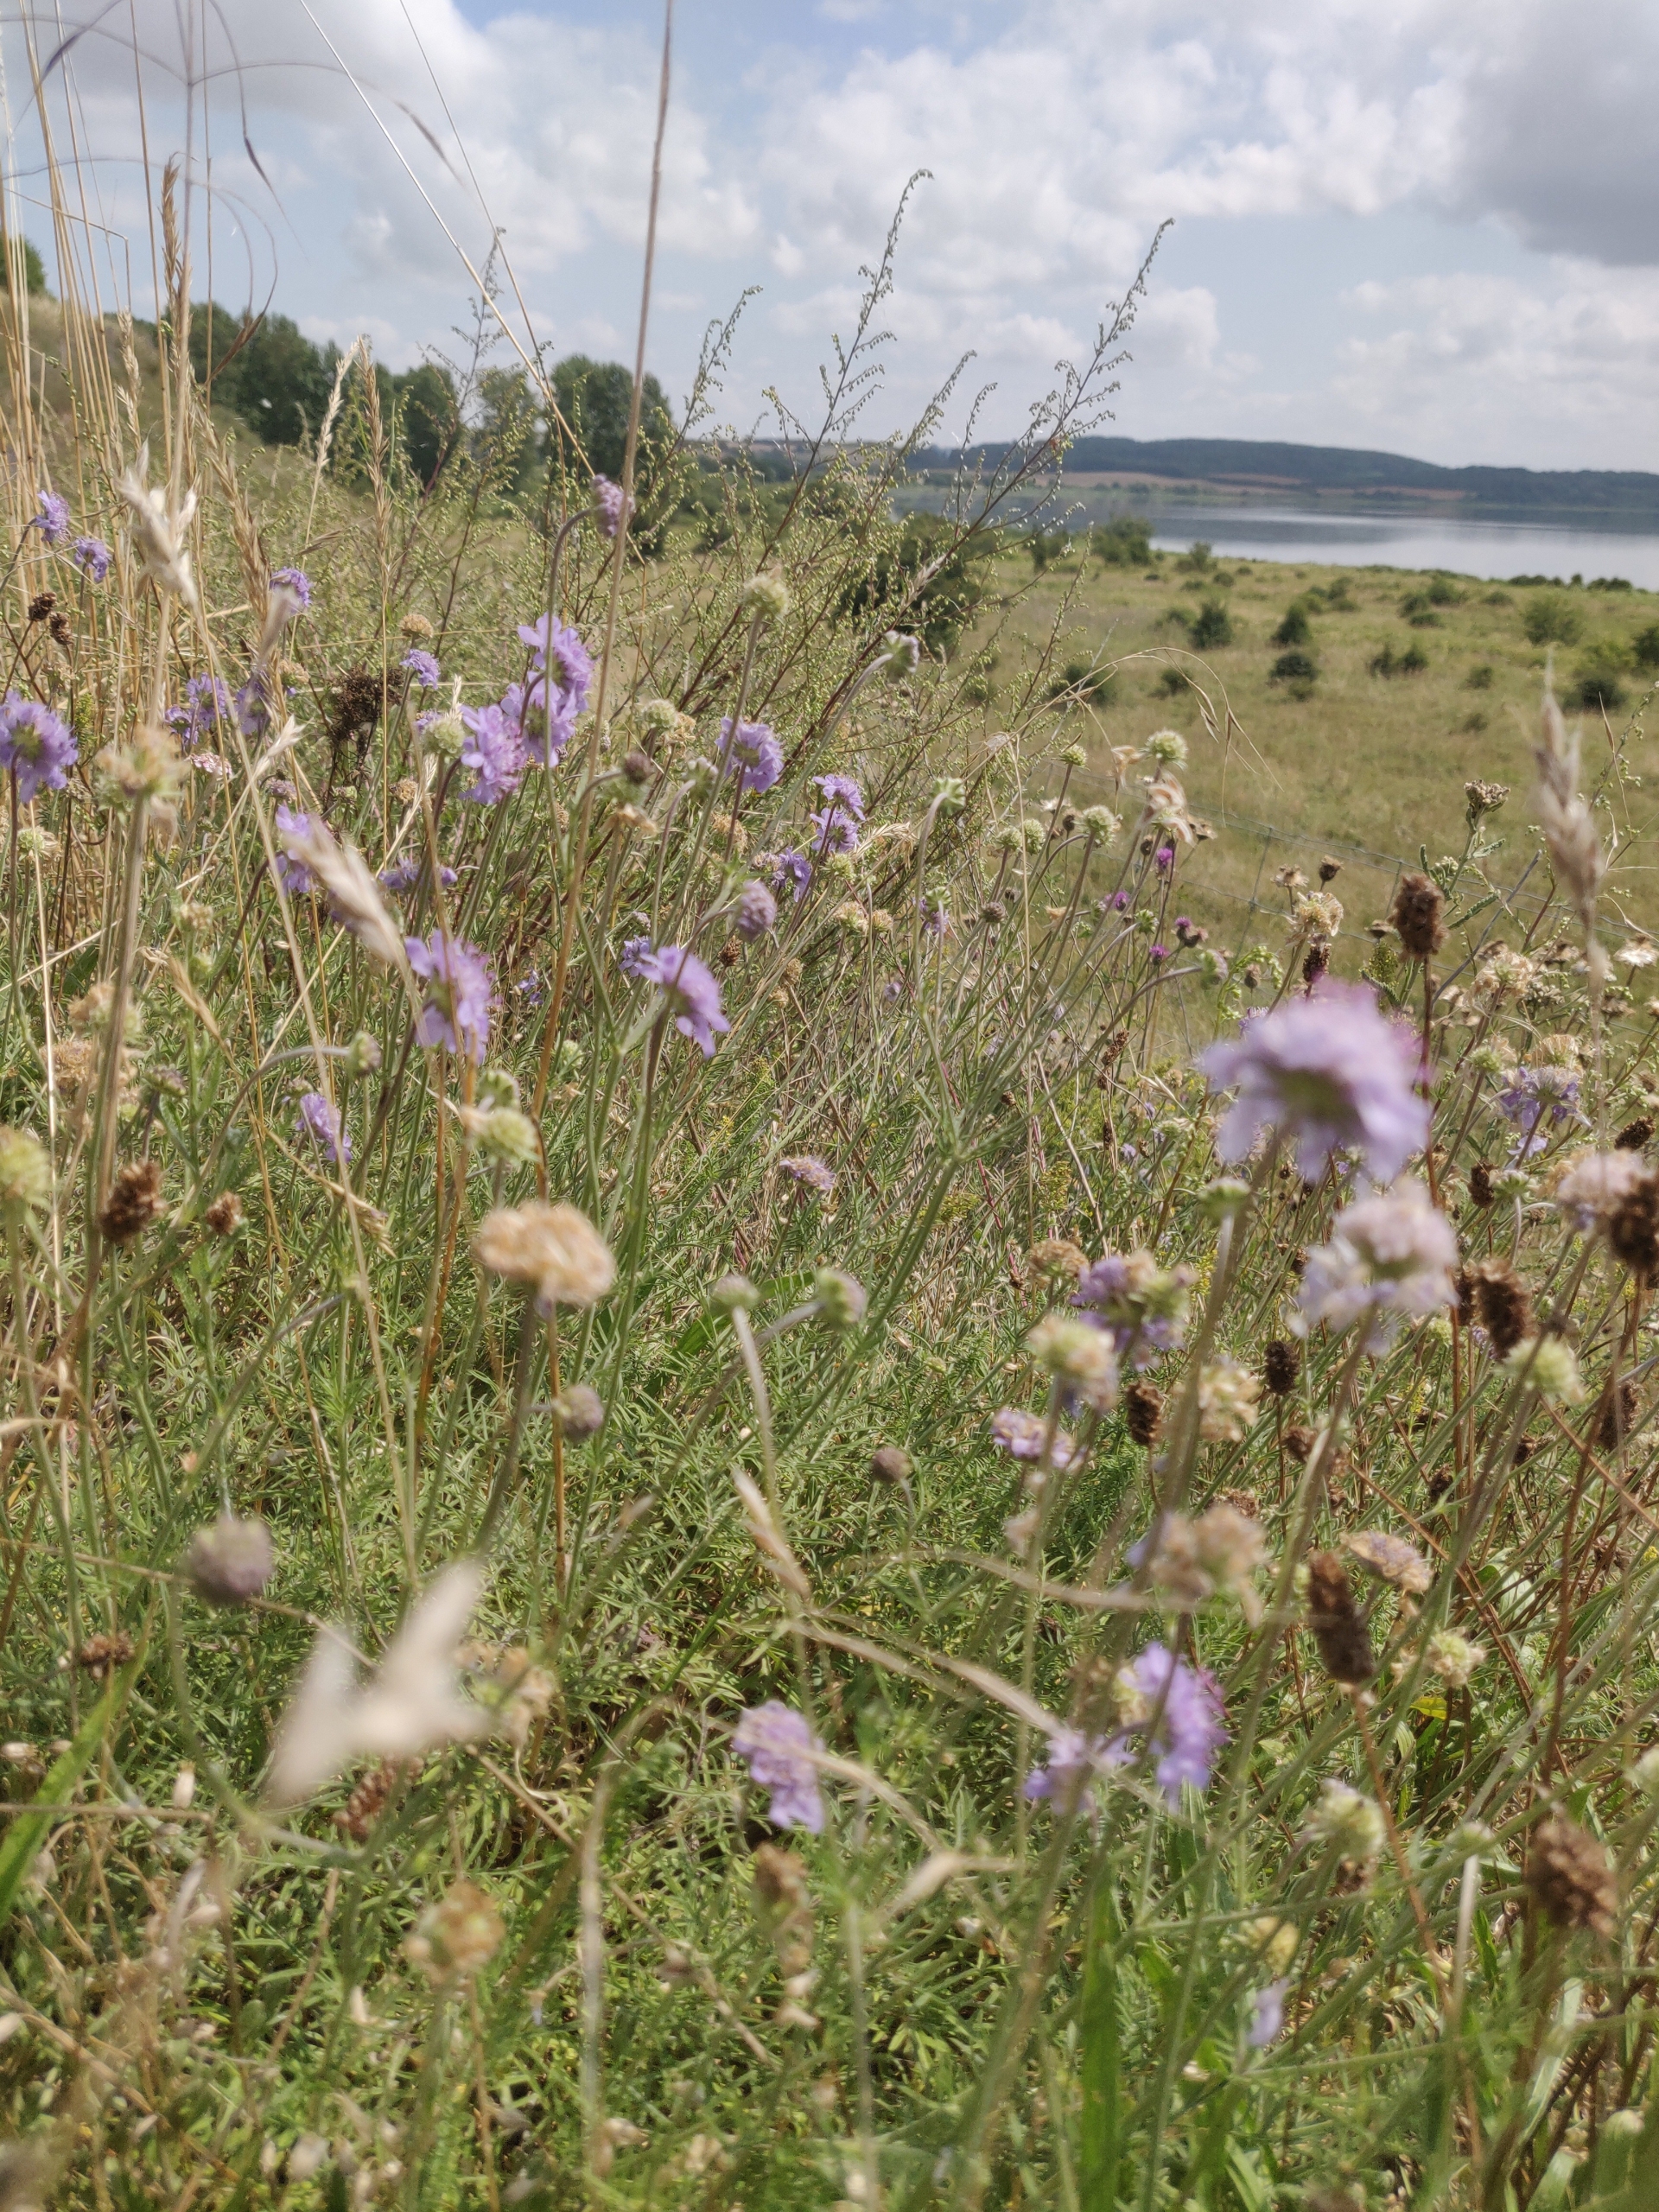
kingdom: Plantae
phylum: Tracheophyta
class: Magnoliopsida
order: Dipsacales
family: Caprifoliaceae
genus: Scabiosa
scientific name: Scabiosa canescens
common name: Vellugtende skabiose
